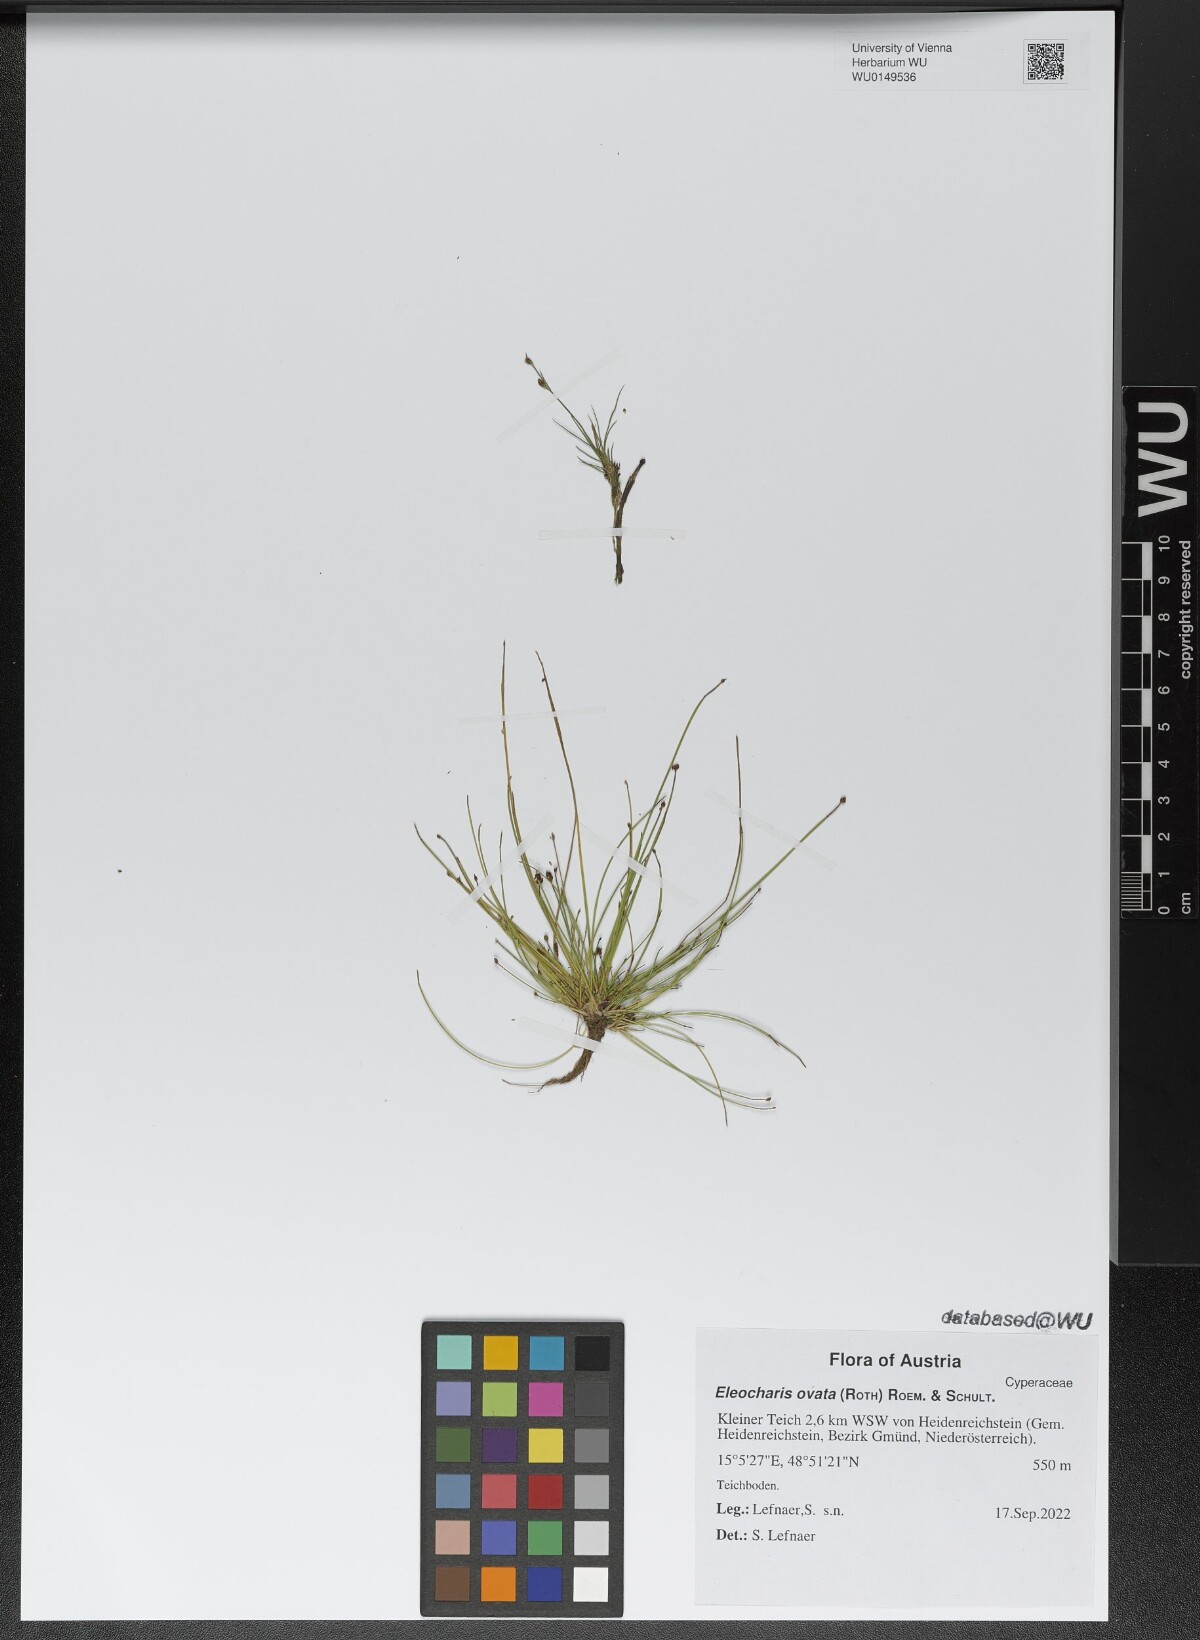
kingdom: Plantae
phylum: Tracheophyta
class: Liliopsida
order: Poales
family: Cyperaceae
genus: Eleocharis
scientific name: Eleocharis ovata
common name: Oval spike-rush
